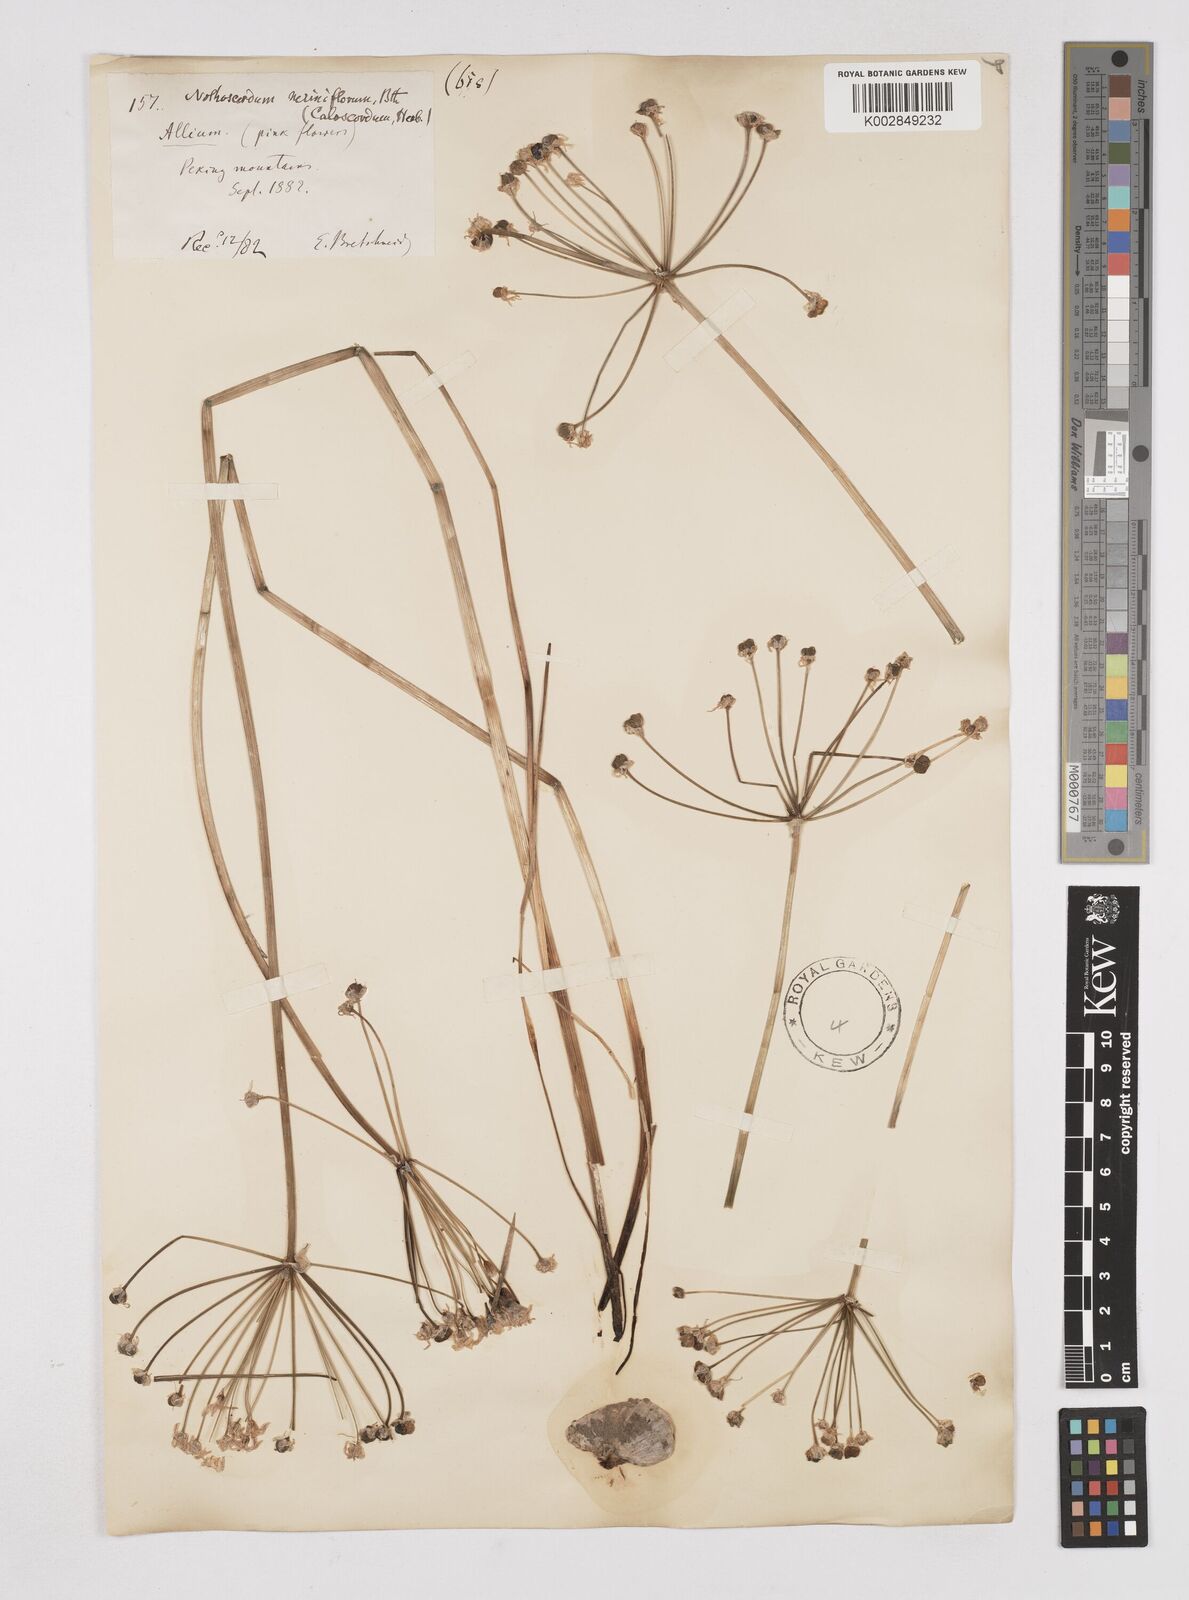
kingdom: Plantae
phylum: Tracheophyta
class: Liliopsida
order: Liliales
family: Liliaceae
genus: Agapanthus
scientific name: Agapanthus
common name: Agapanthus
